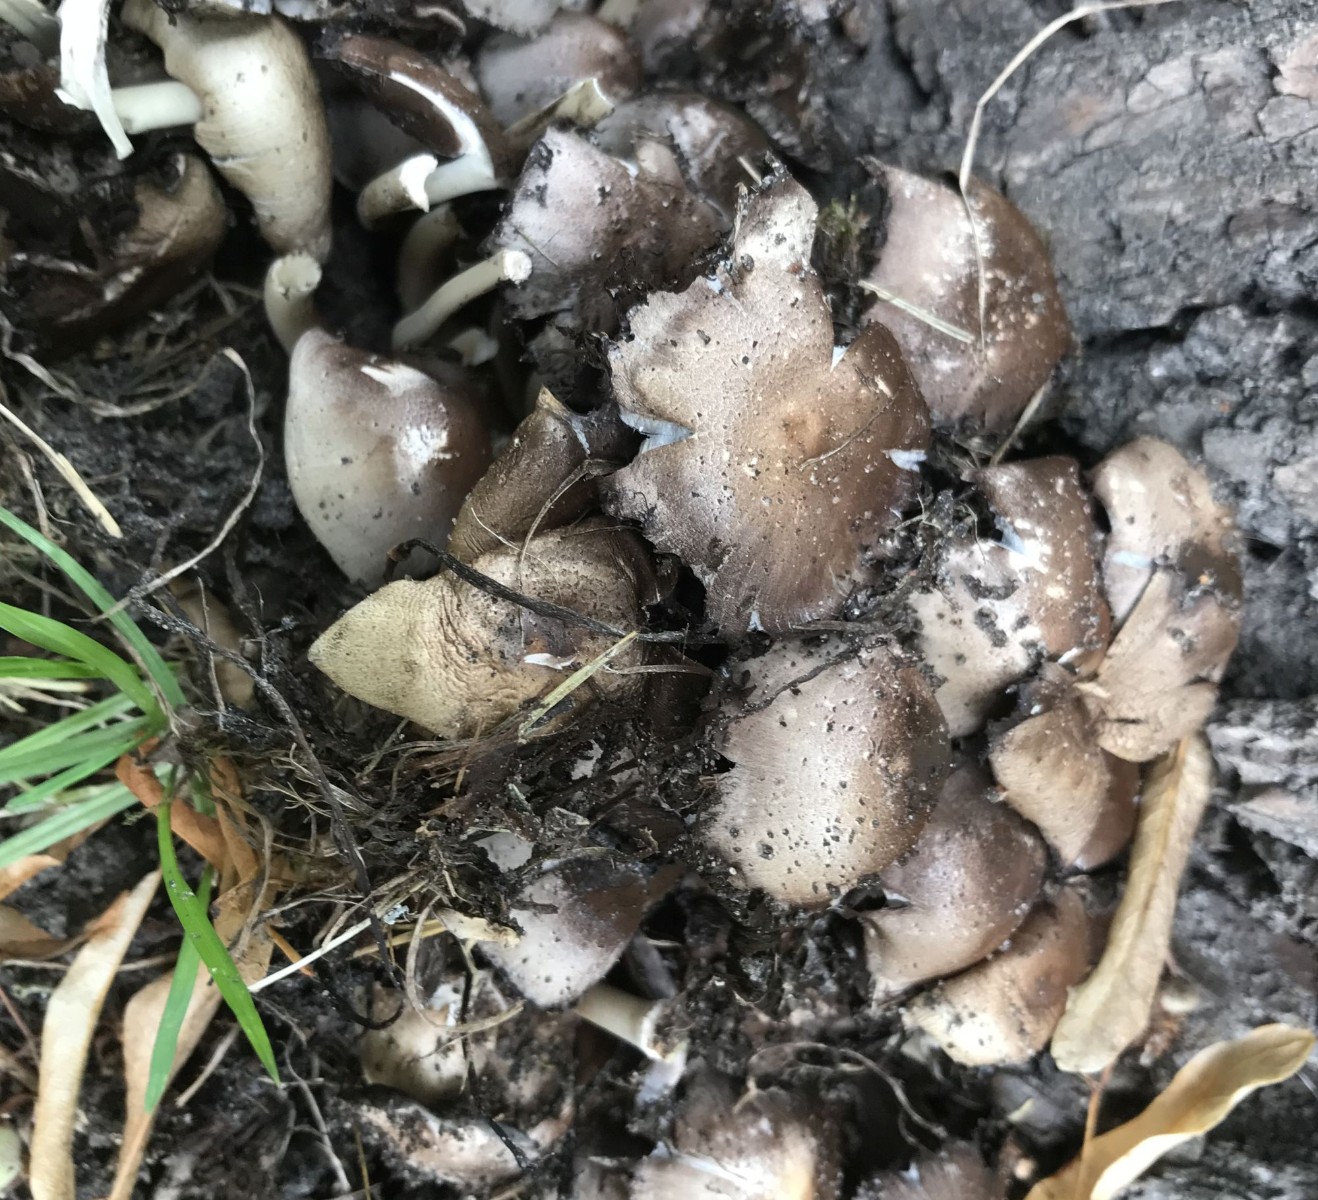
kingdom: Fungi
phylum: Basidiomycota
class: Agaricomycetes
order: Agaricales
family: Psathyrellaceae
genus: Coprinopsis
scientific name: Coprinopsis
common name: blækhat
